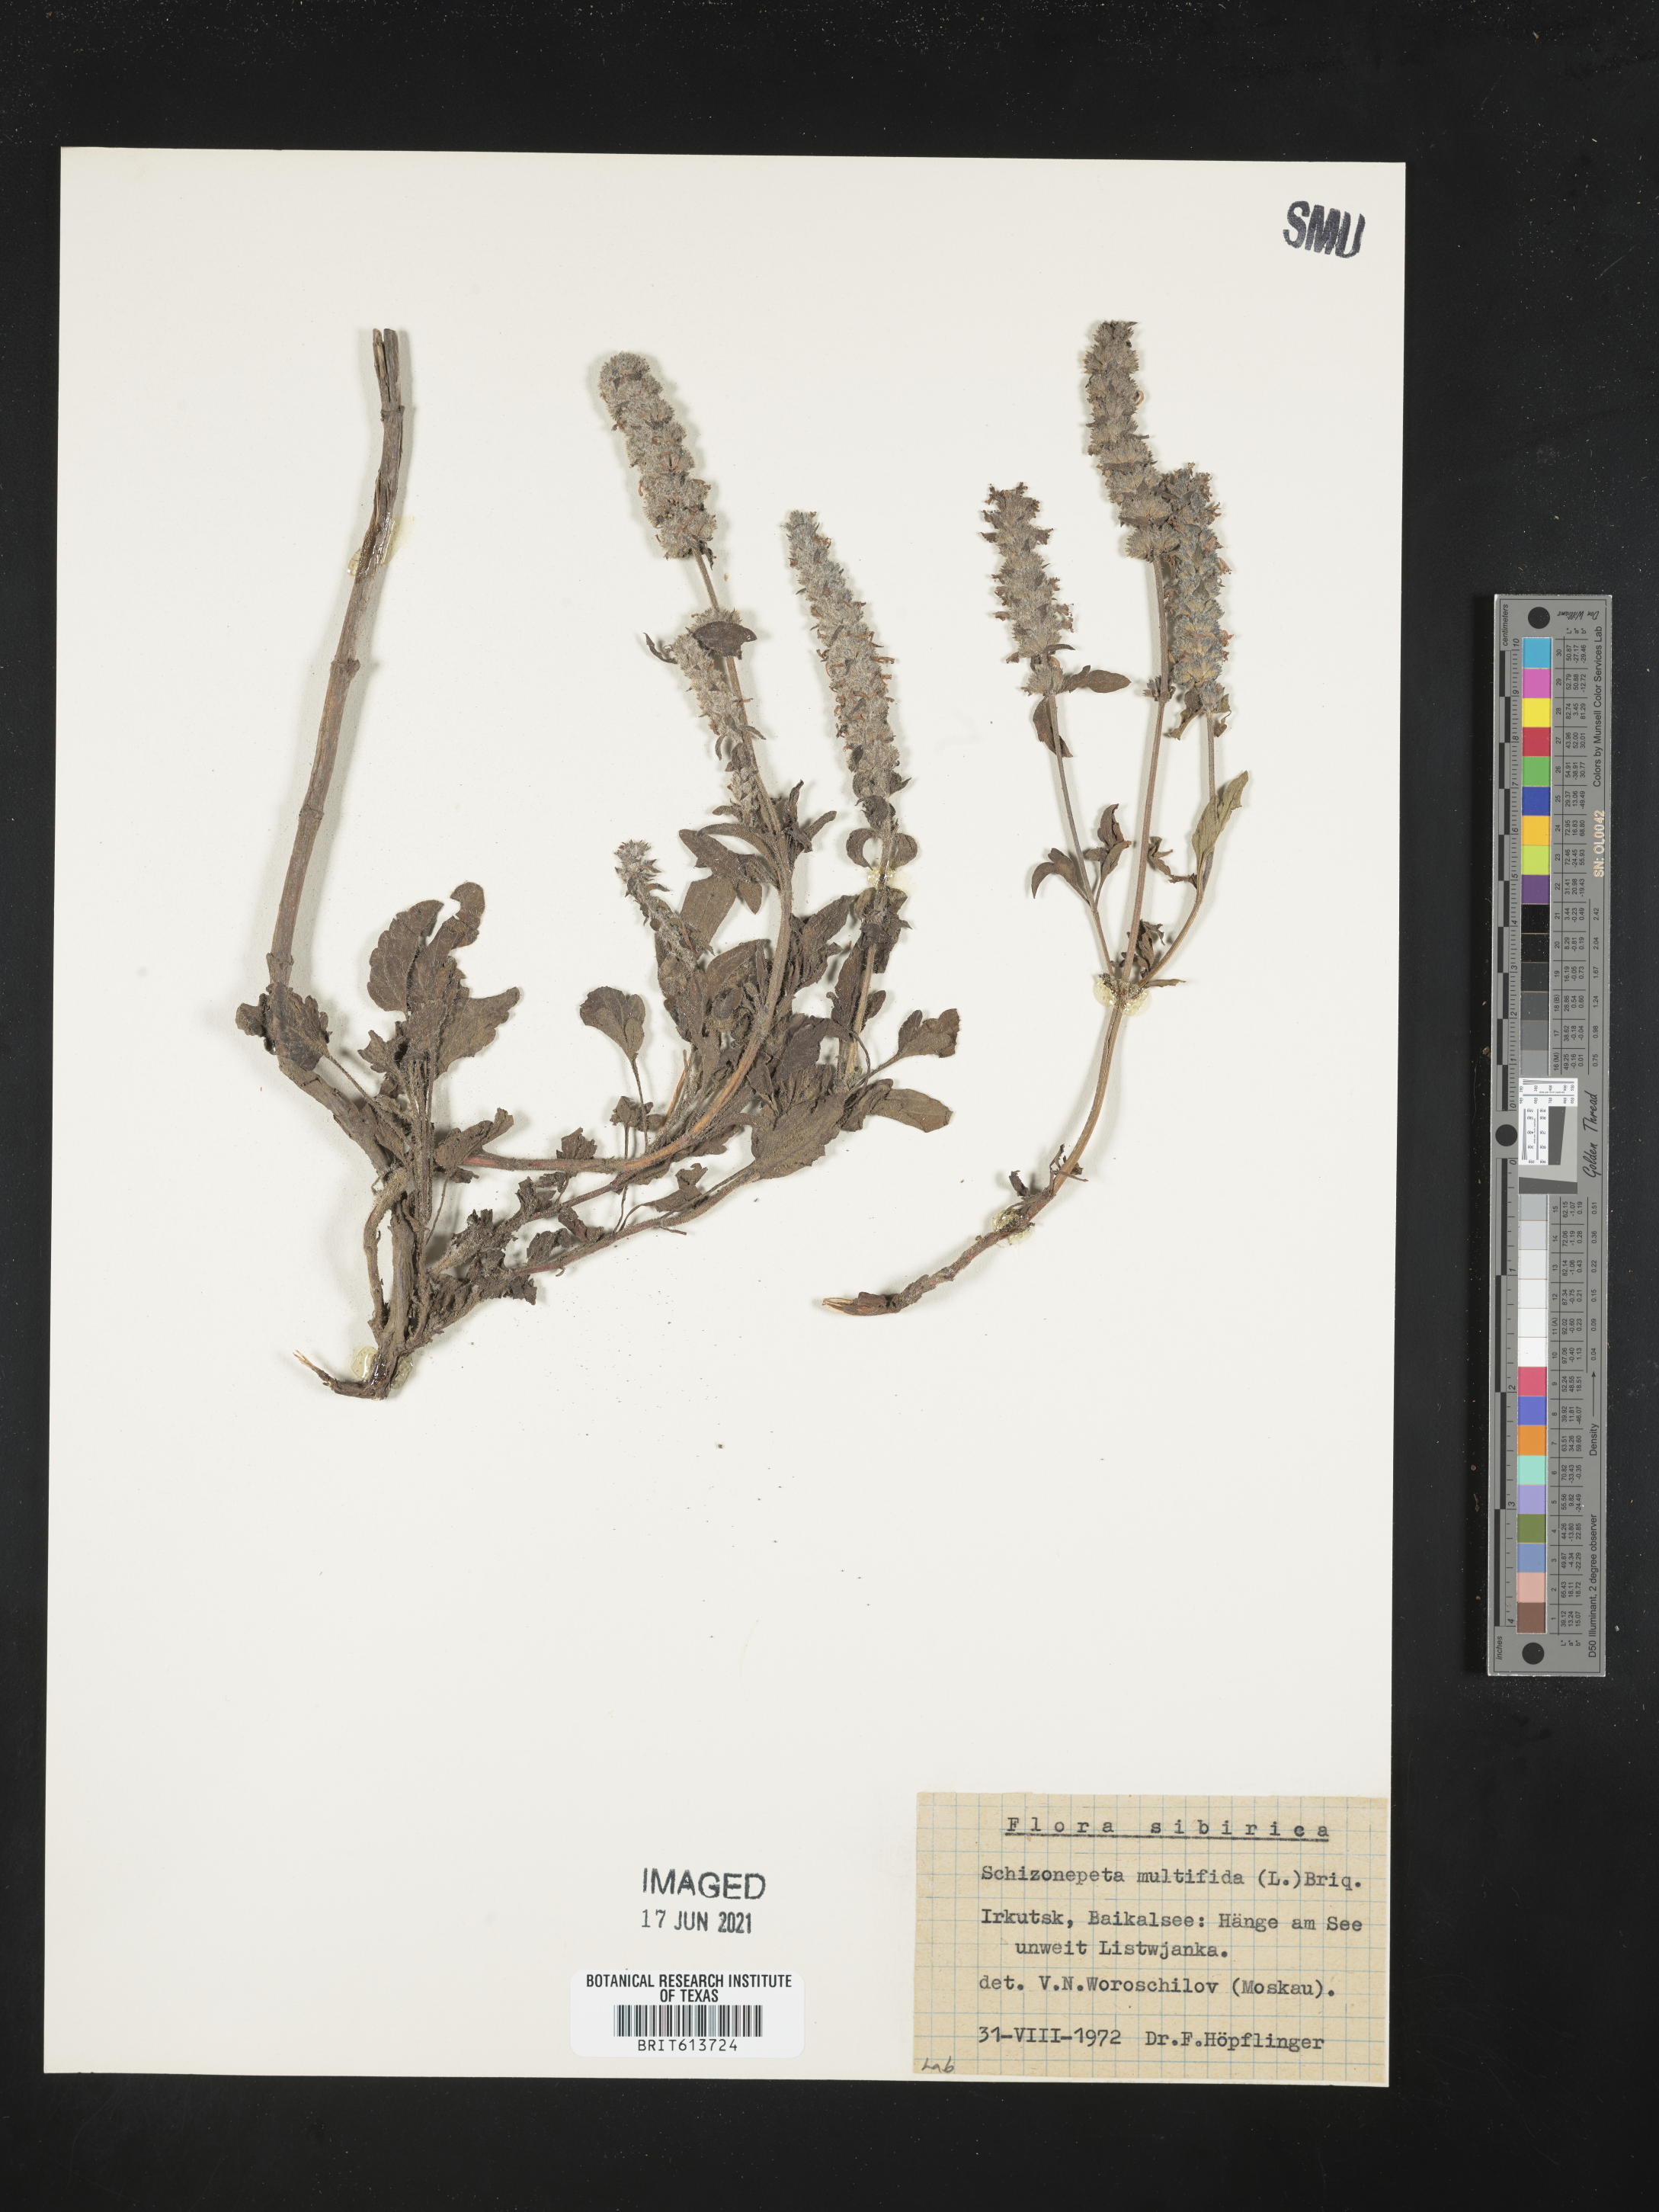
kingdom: Plantae
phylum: Tracheophyta
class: Magnoliopsida
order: Lamiales
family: Lamiaceae
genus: Nepeta
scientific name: Nepeta multifida
